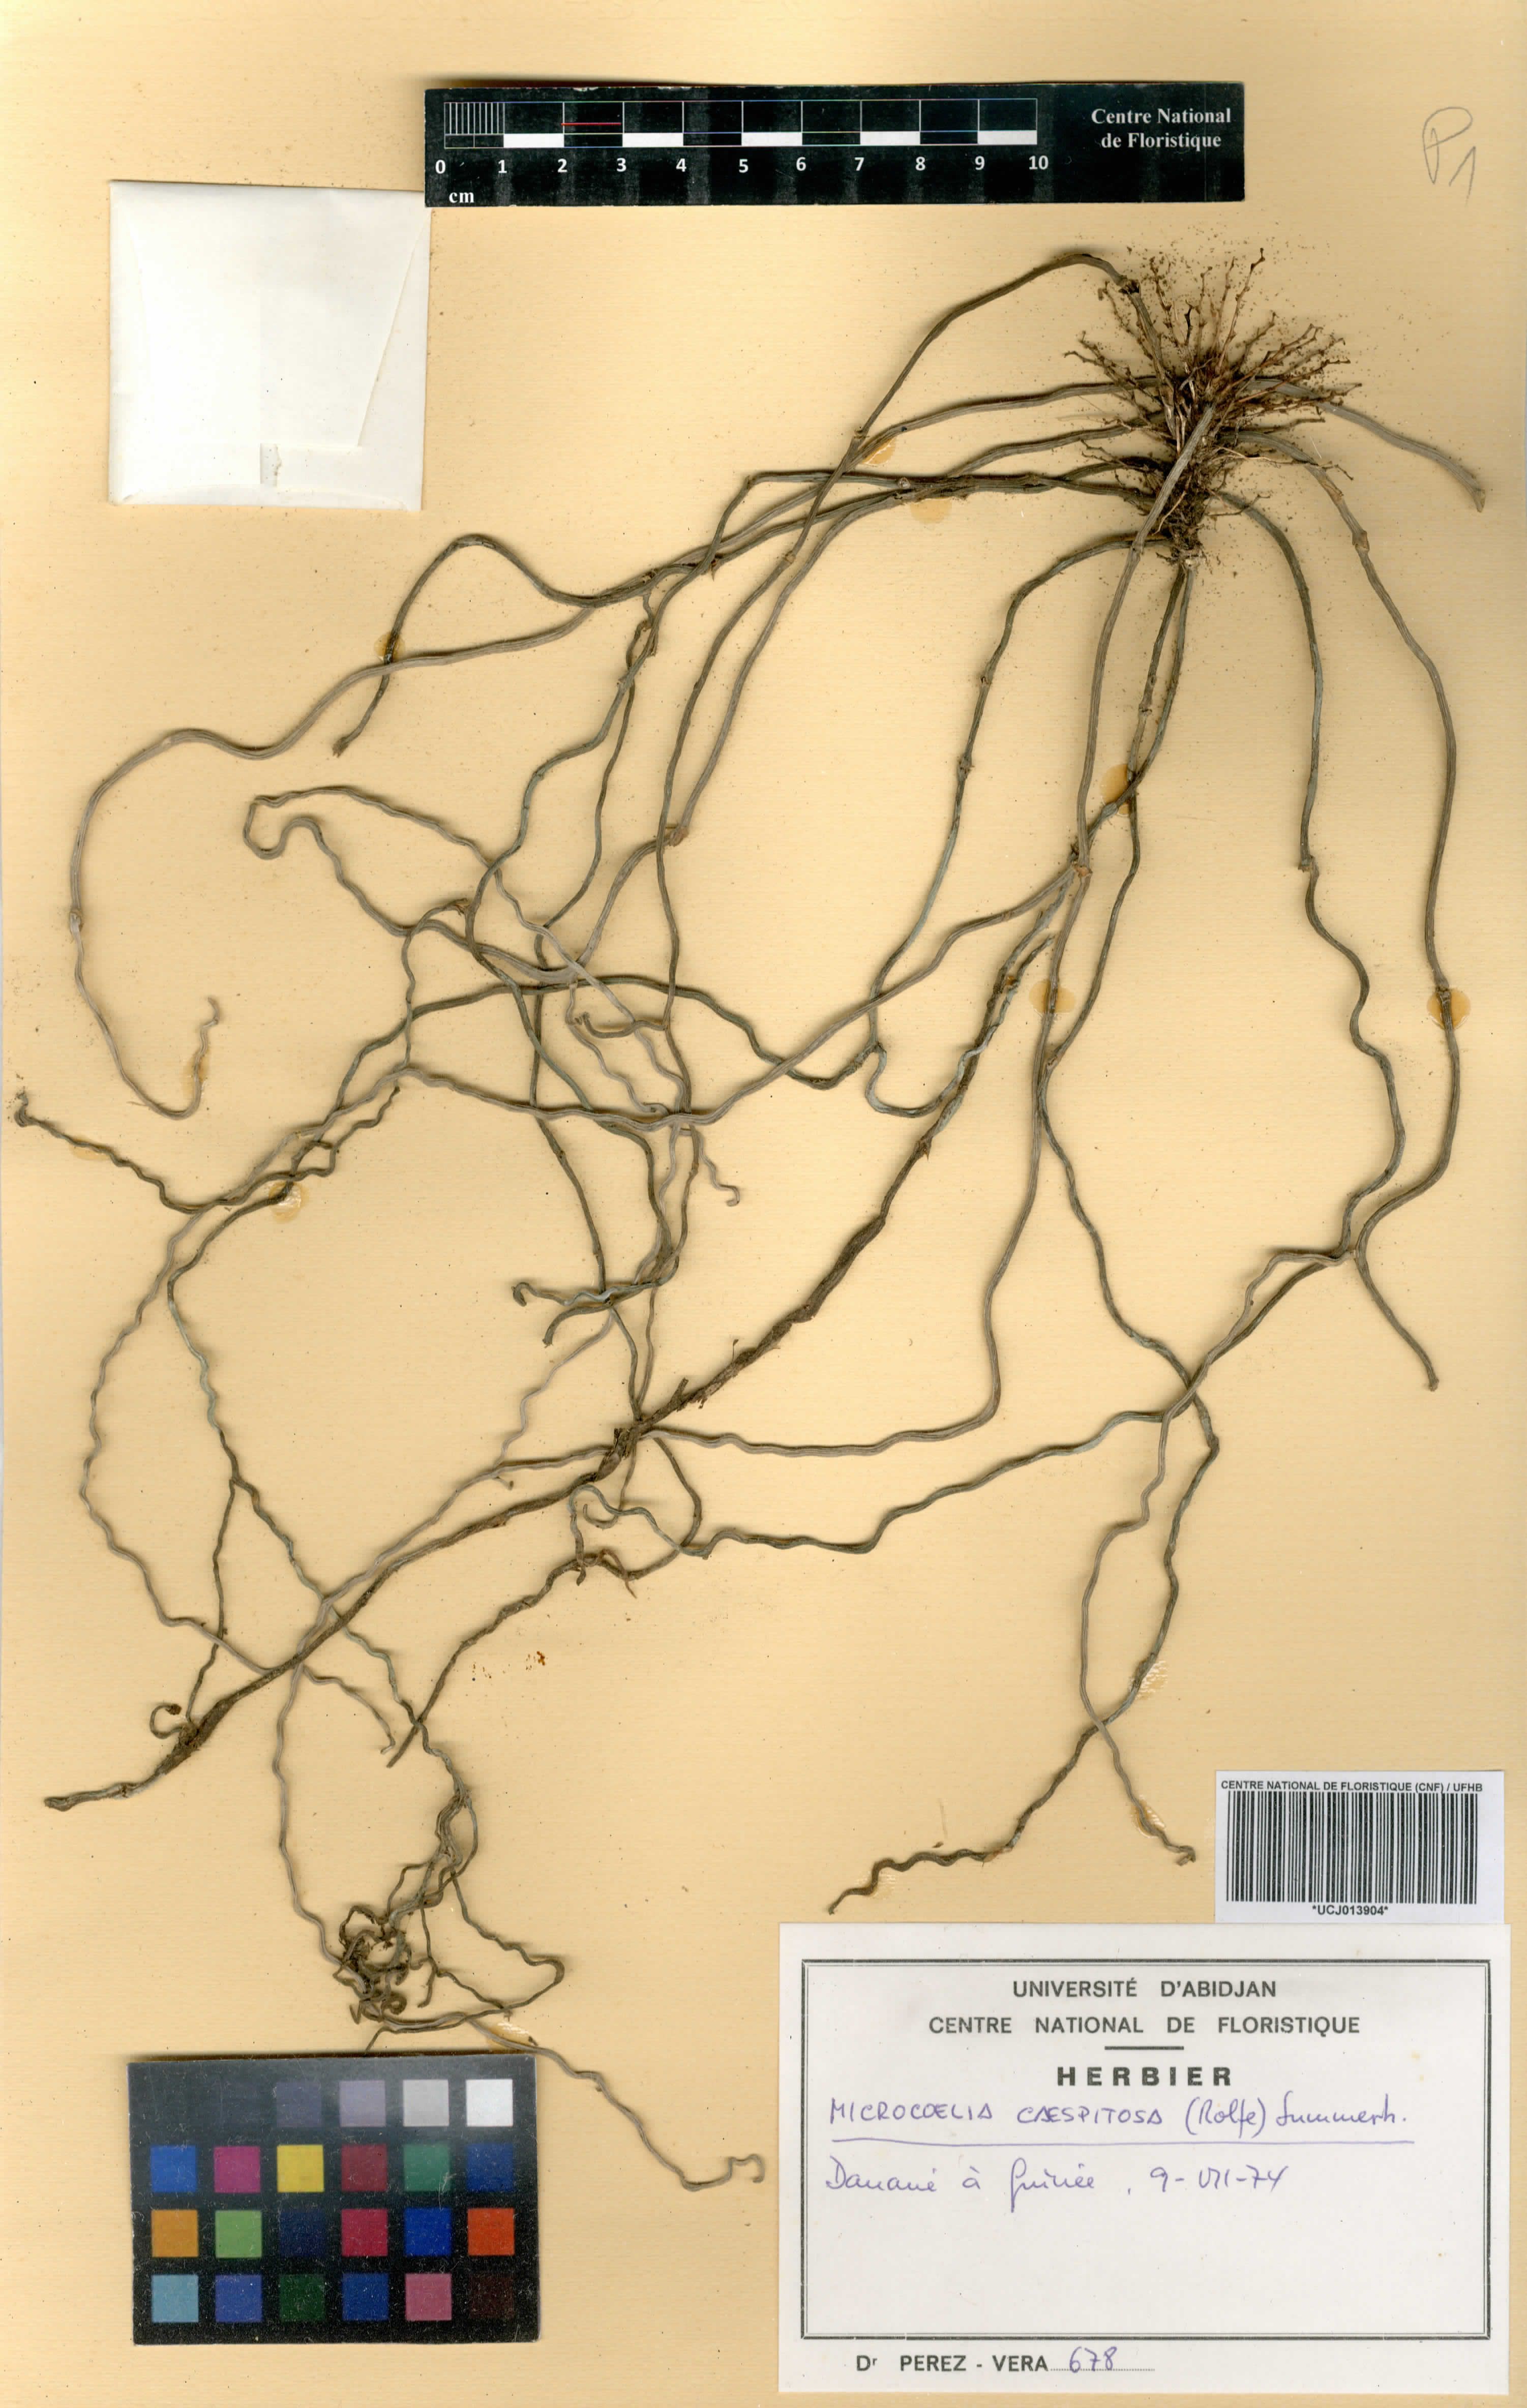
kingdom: Plantae
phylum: Tracheophyta
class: Liliopsida
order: Asparagales
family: Orchidaceae
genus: Microcoelia
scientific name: Microcoelia caespitosa
